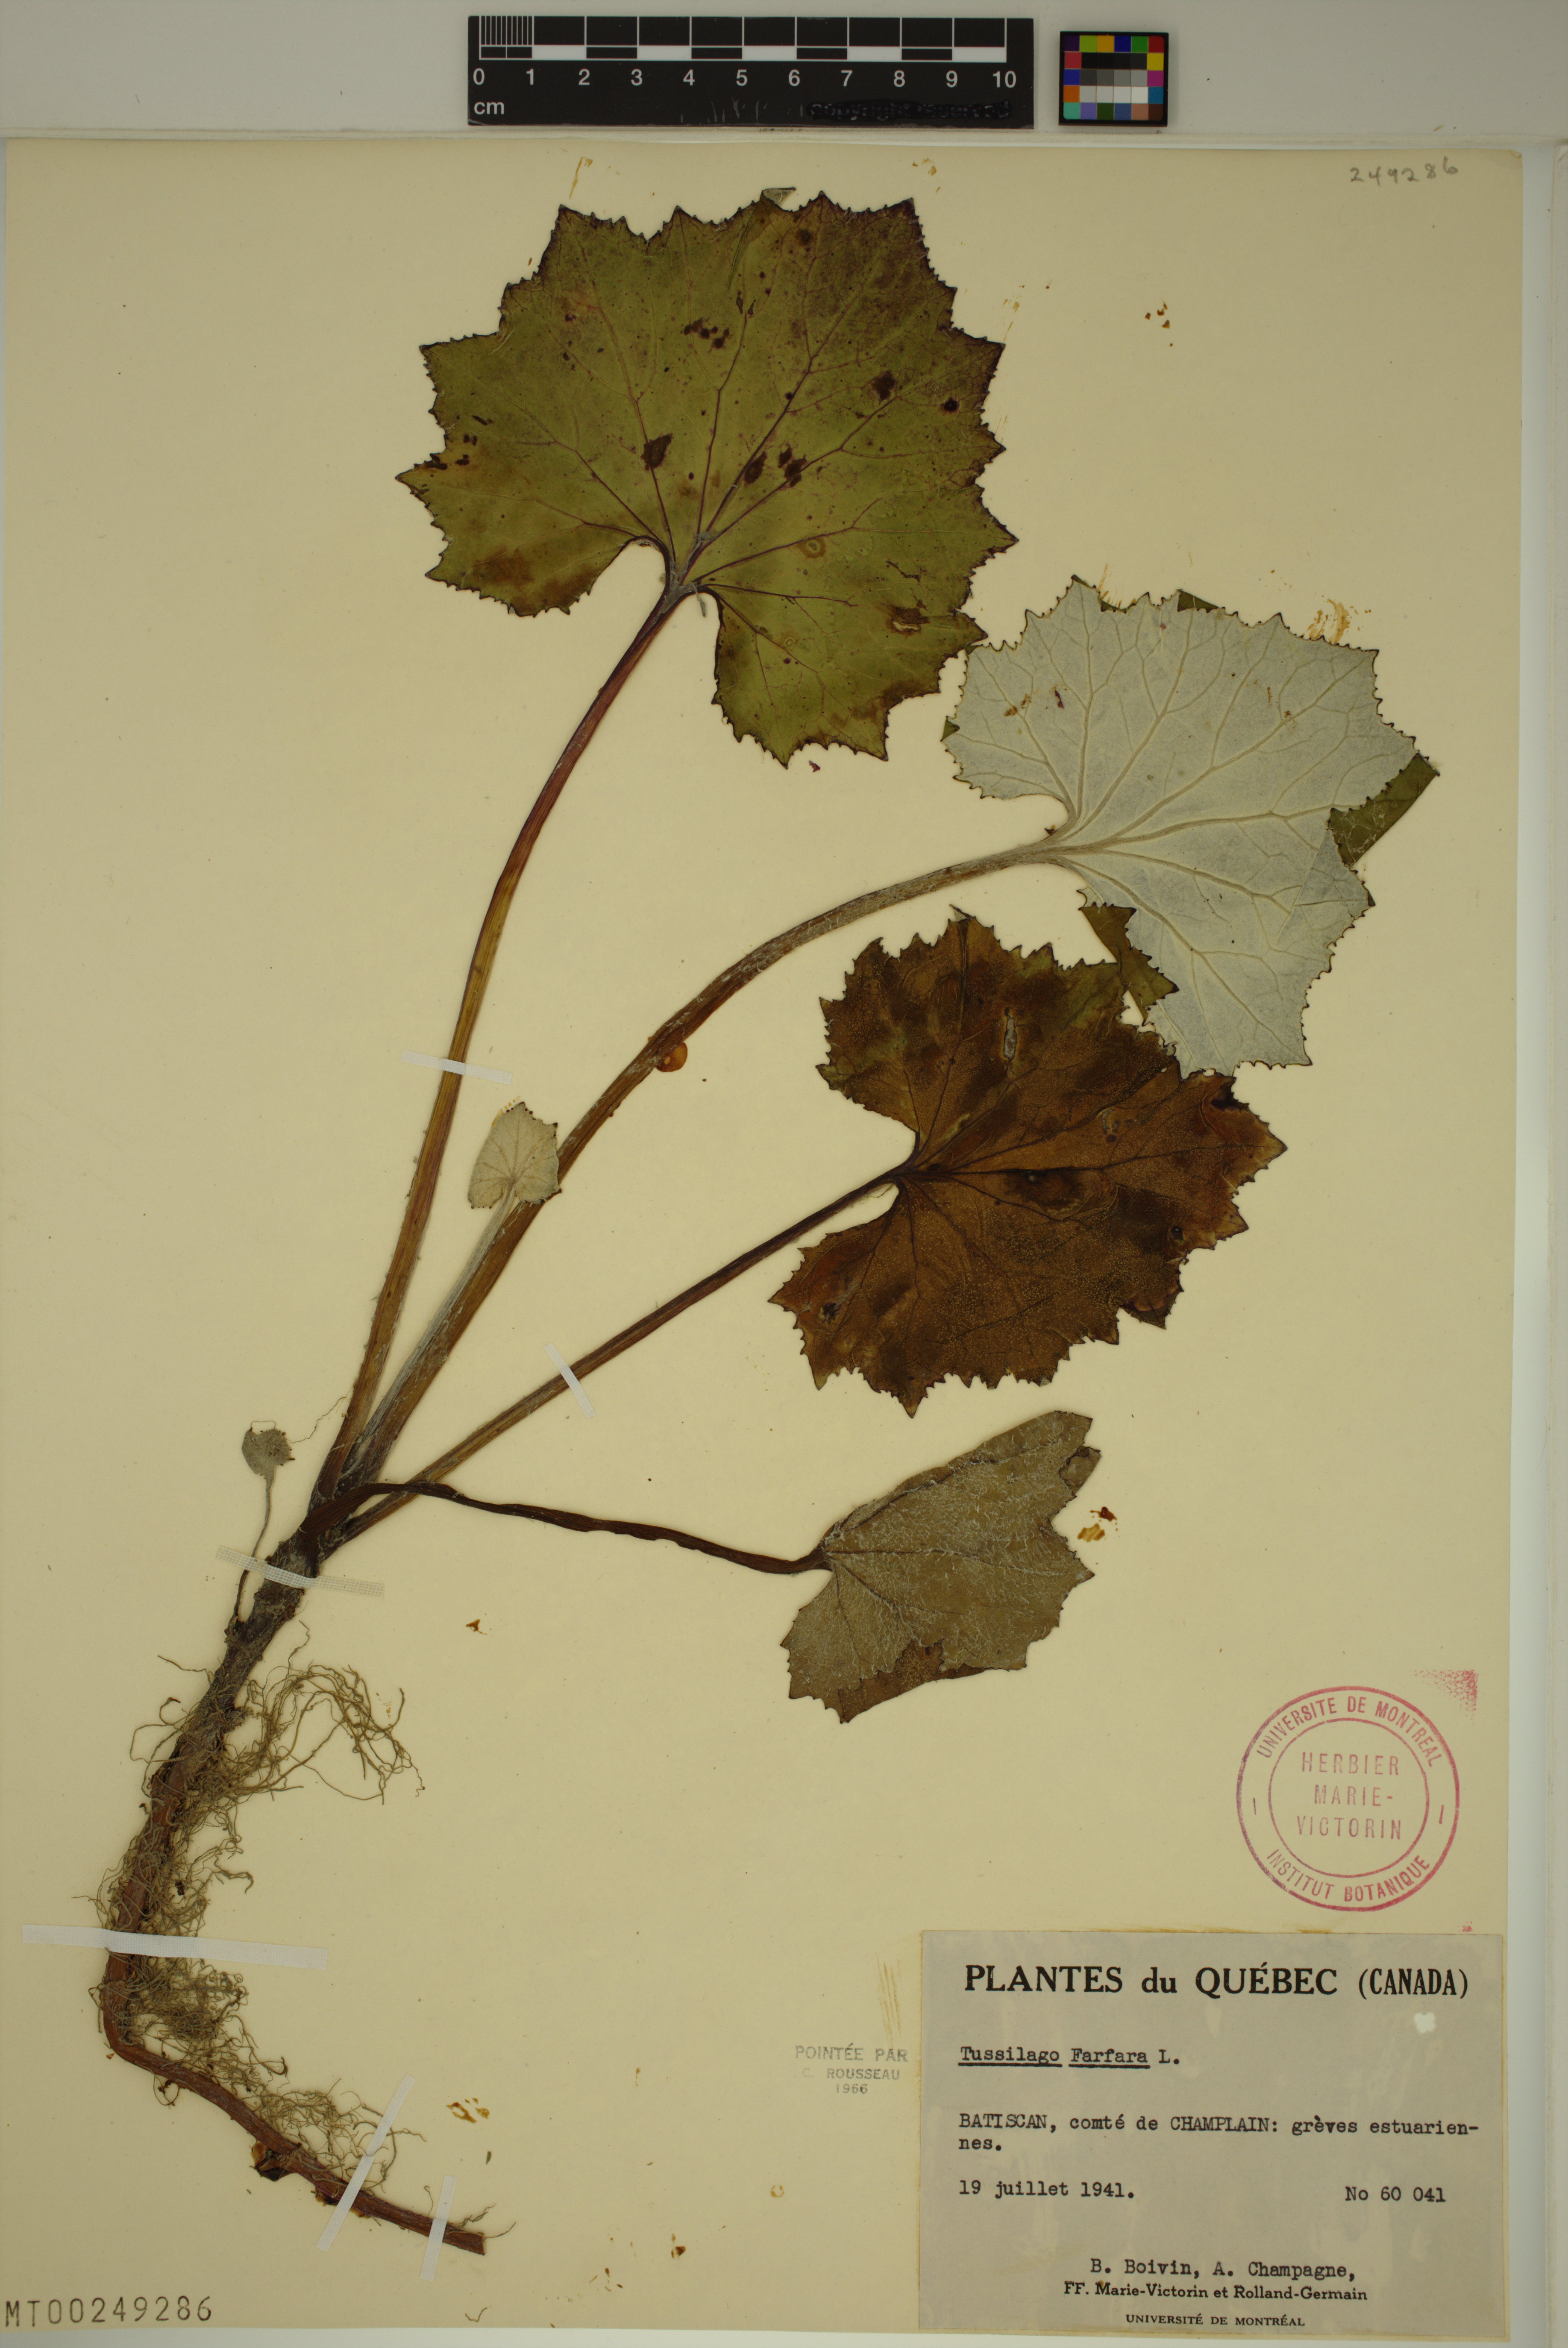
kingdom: Plantae
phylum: Tracheophyta
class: Magnoliopsida
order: Asterales
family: Asteraceae
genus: Tussilago
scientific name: Tussilago farfara
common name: Coltsfoot
